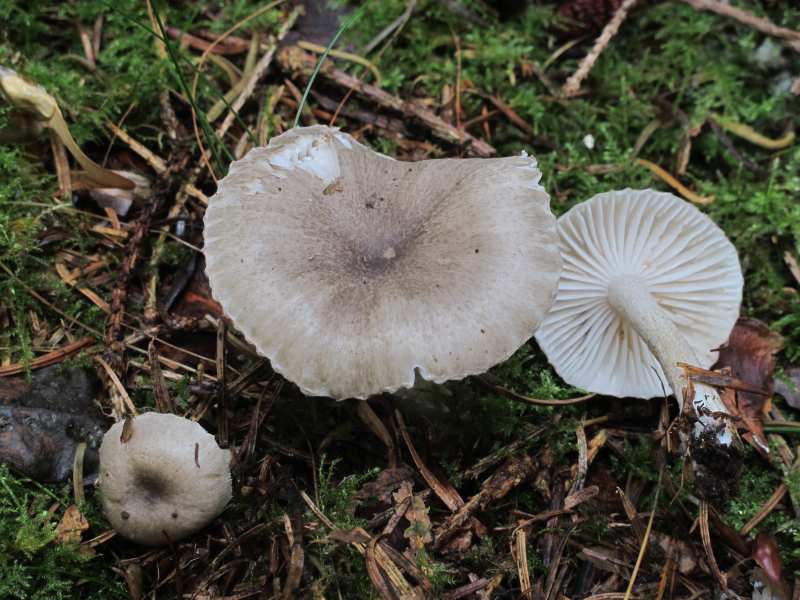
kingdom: Fungi
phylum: Basidiomycota
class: Agaricomycetes
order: Agaricales
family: Hygrophoraceae
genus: Hygrophorus
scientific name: Hygrophorus pustulatus
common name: mørkprikket sneglehat
